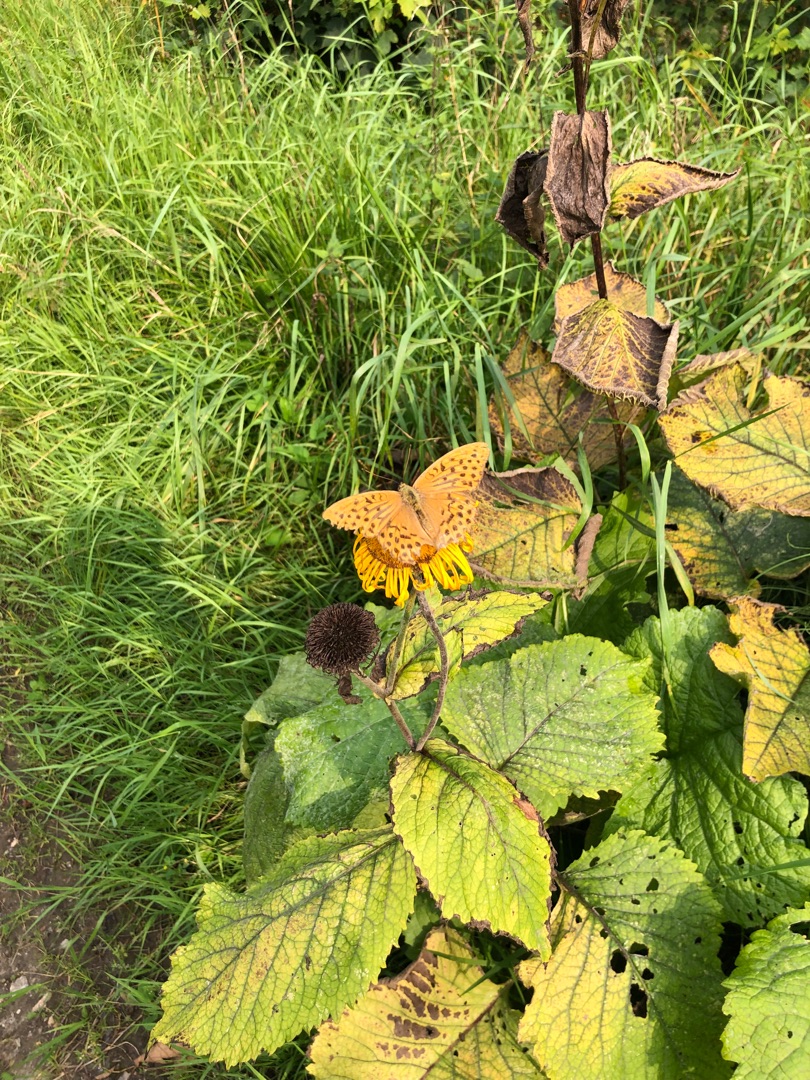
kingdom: Animalia
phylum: Arthropoda
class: Insecta
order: Lepidoptera
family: Nymphalidae
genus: Argynnis
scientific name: Argynnis paphia
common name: Kejserkåbe
